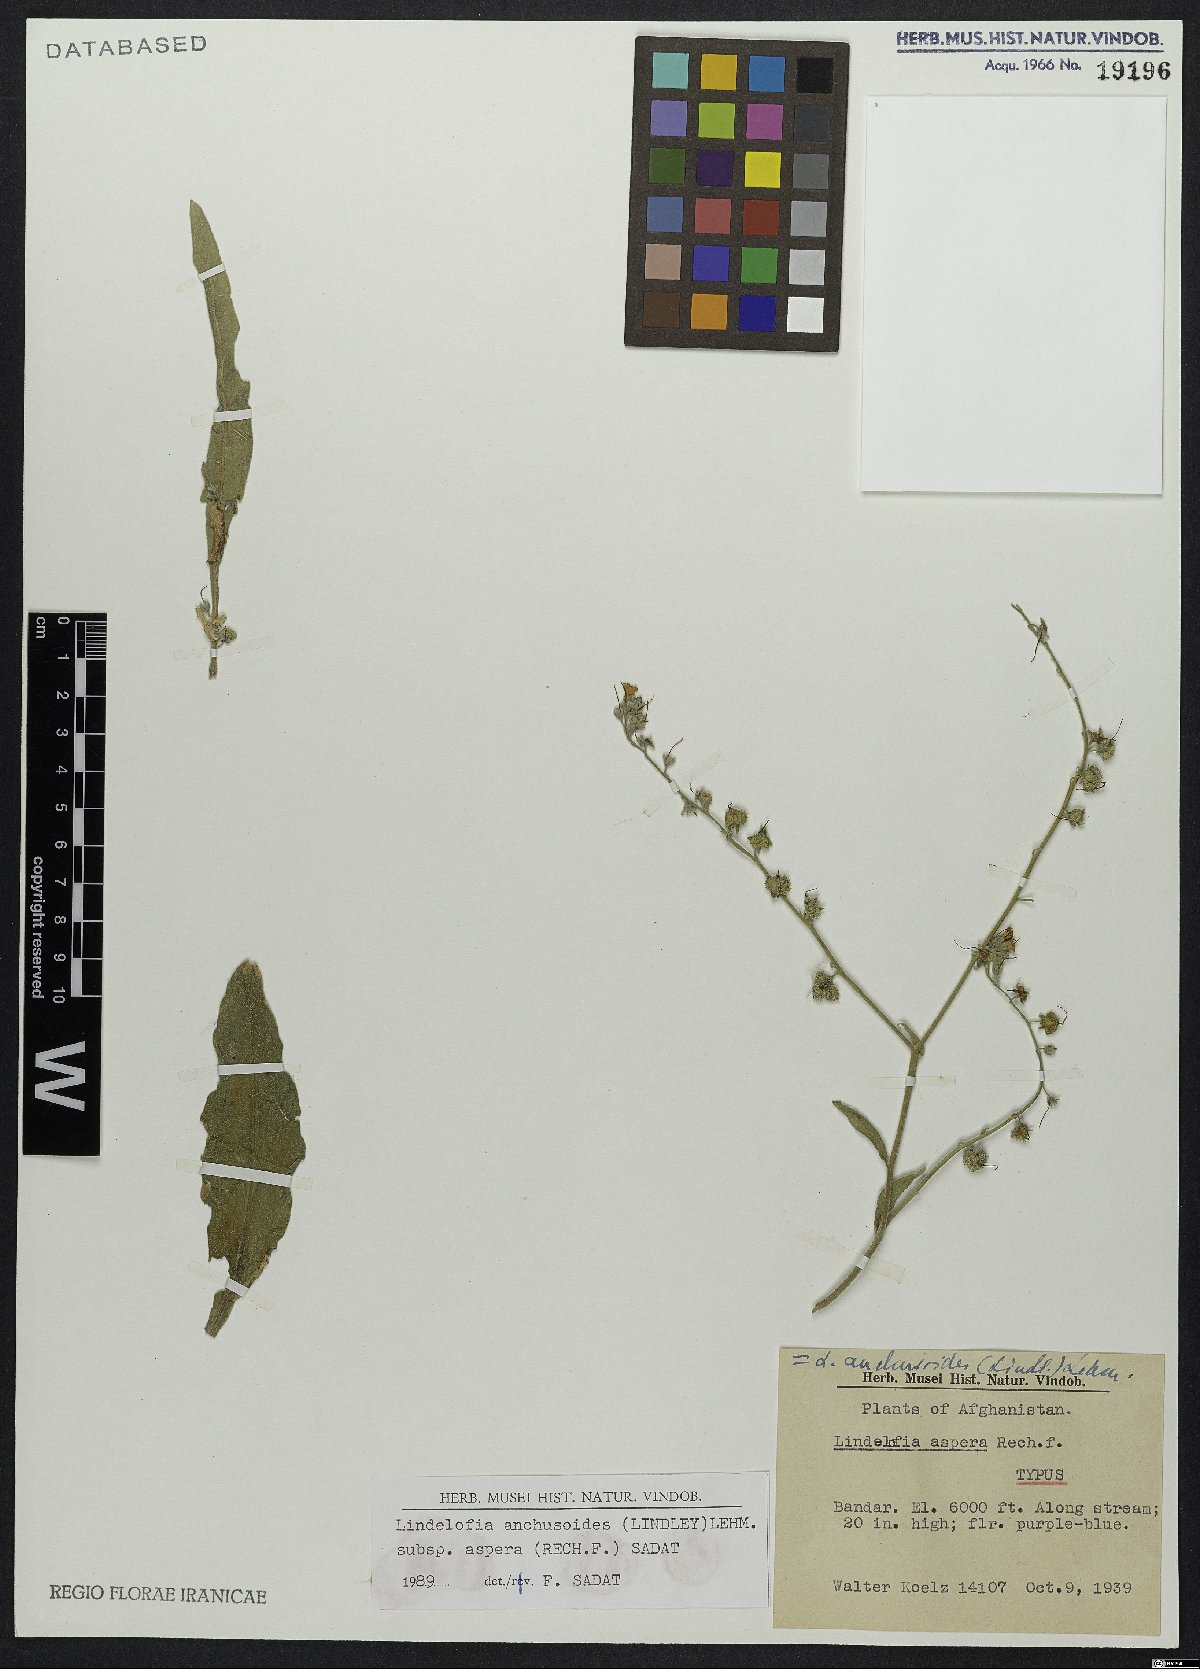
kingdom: Plantae
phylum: Tracheophyta
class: Magnoliopsida
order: Boraginales
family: Boraginaceae
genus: Lindelofia
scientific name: Lindelofia anchusoides
